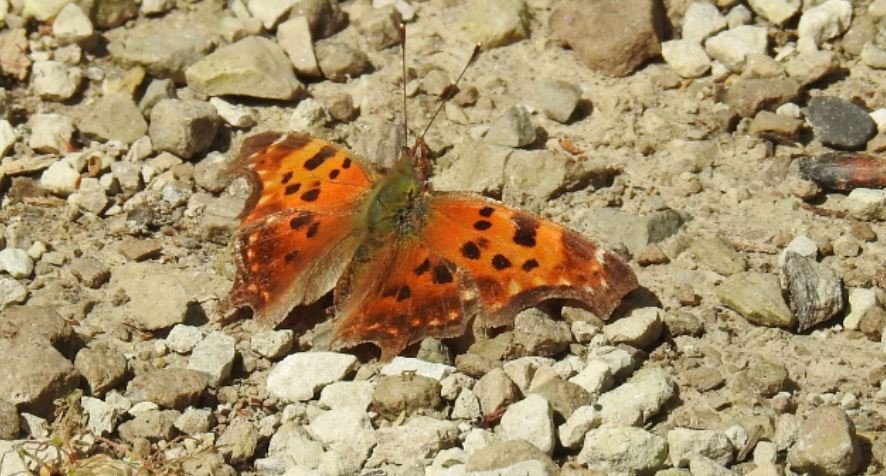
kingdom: Animalia
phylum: Arthropoda
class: Insecta
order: Lepidoptera
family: Nymphalidae
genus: Polygonia
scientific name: Polygonia comma
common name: Eastern Comma
